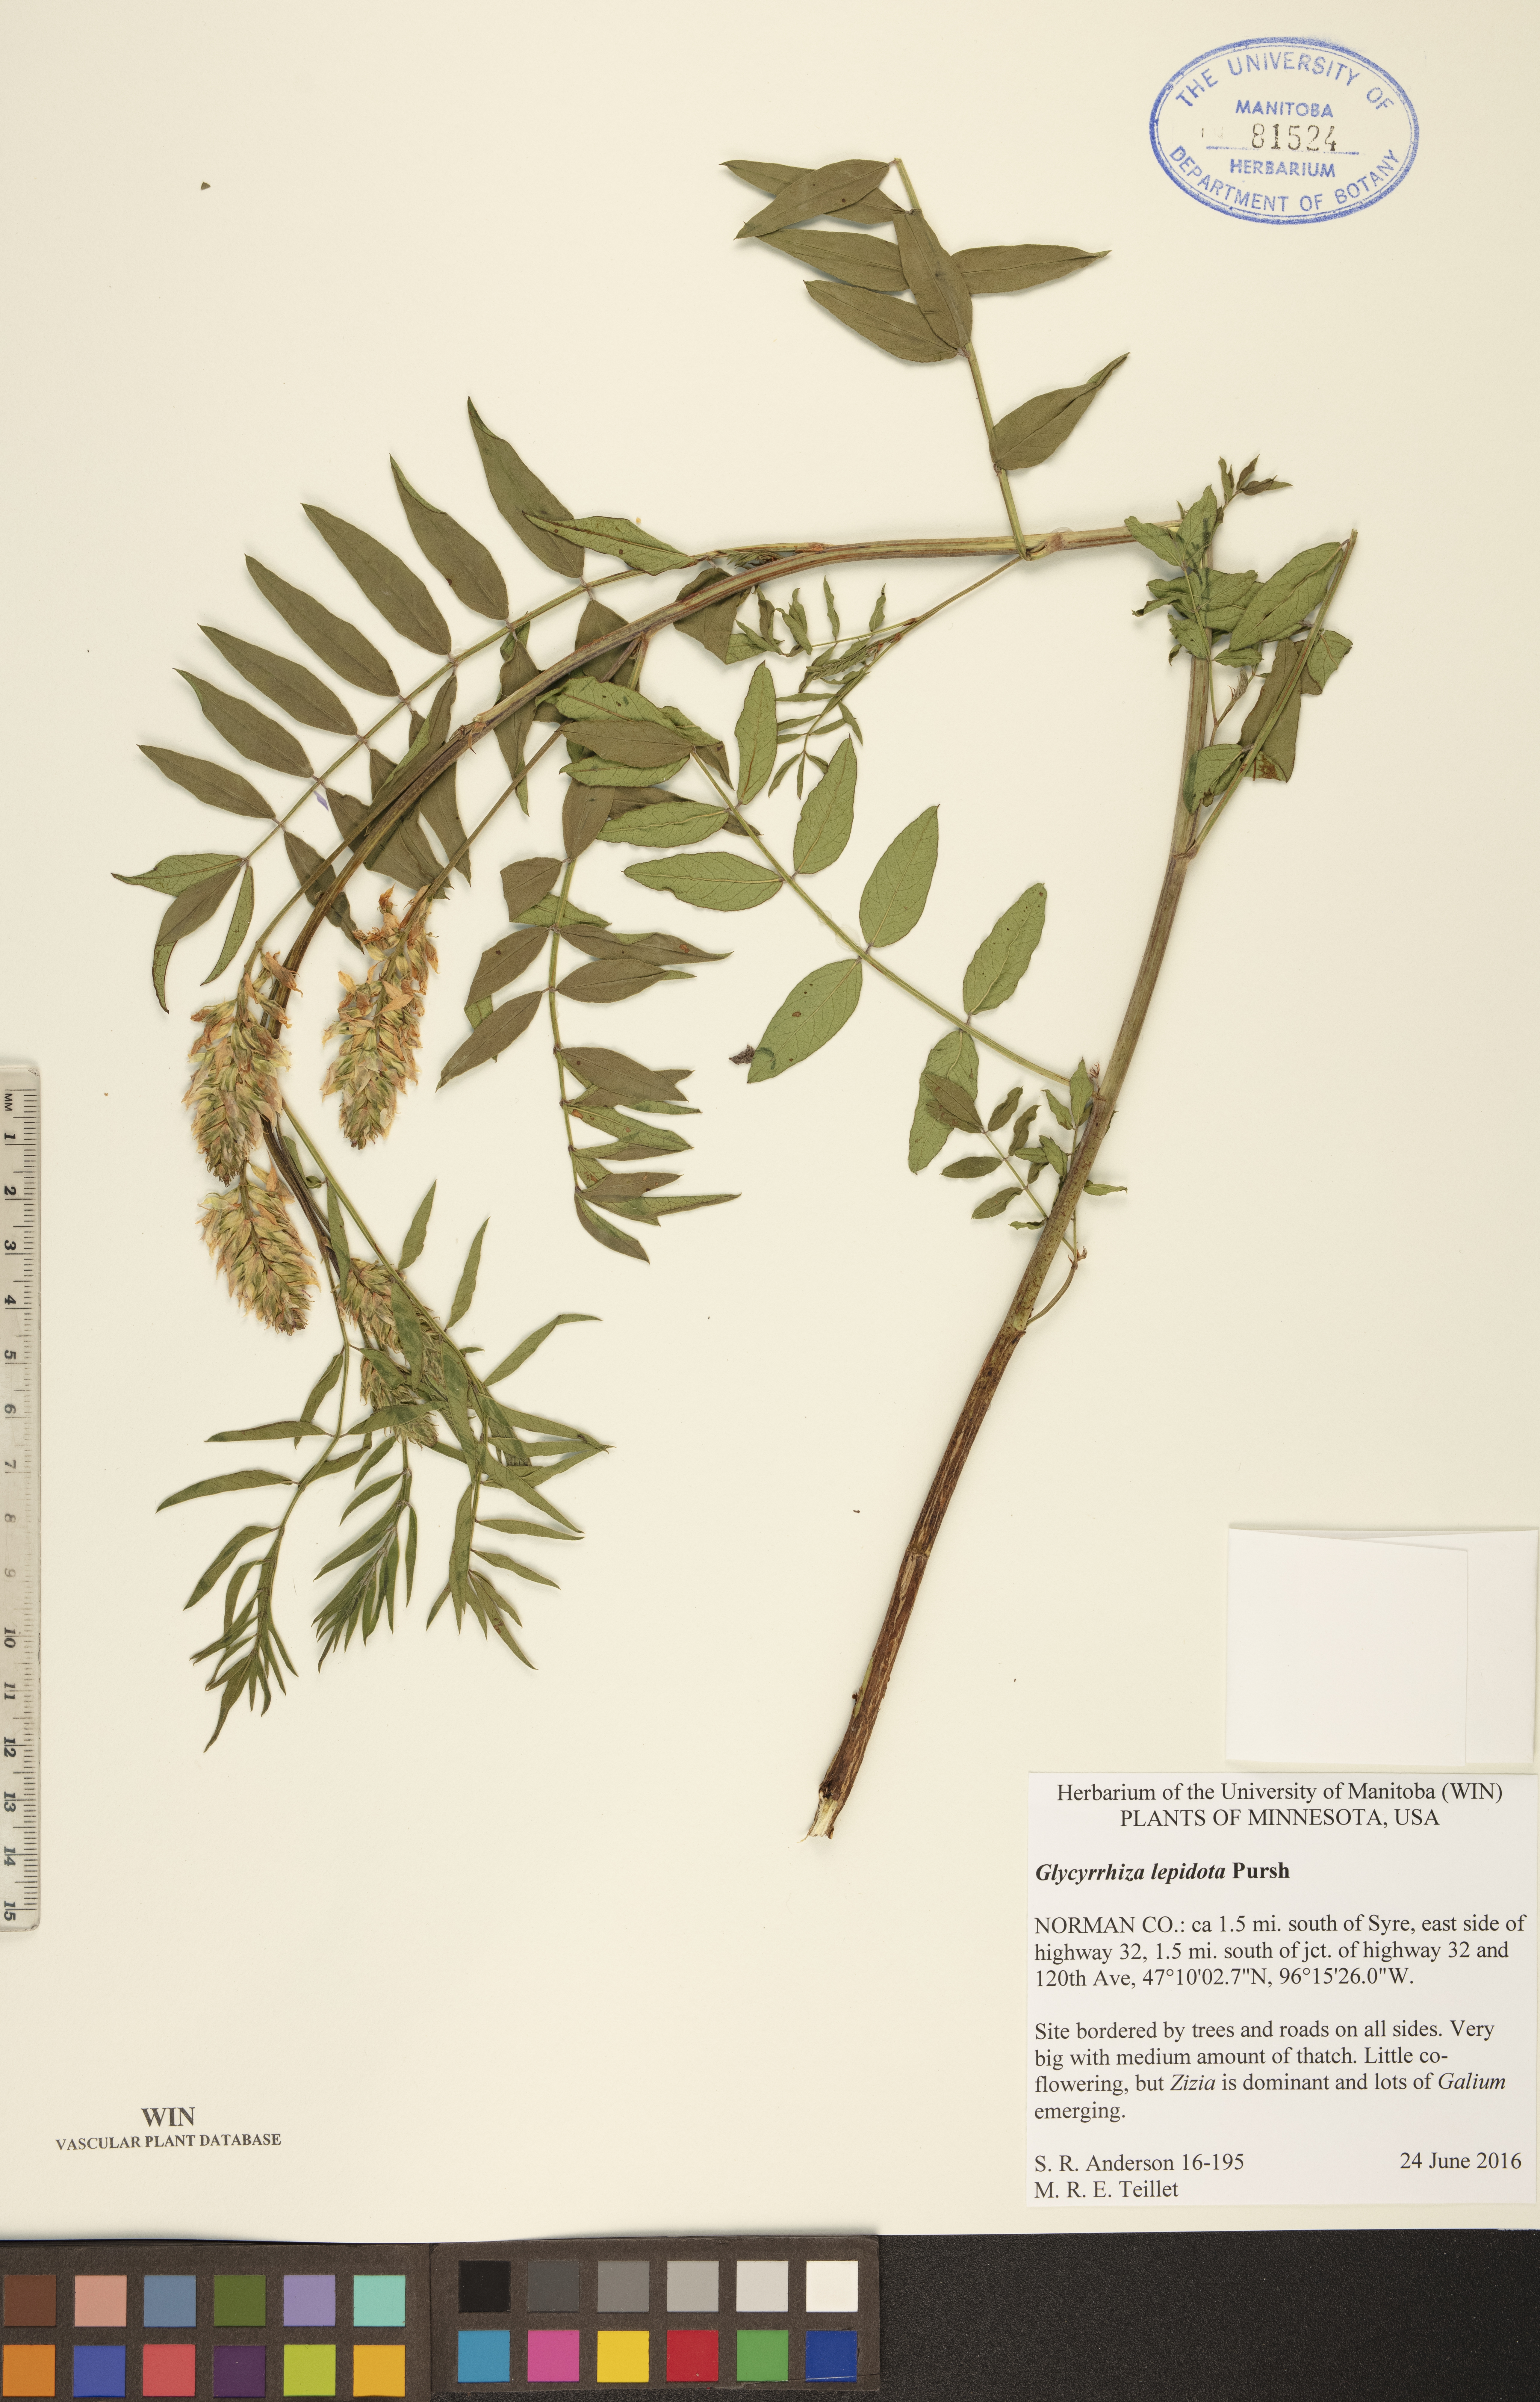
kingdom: Plantae
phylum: Tracheophyta
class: Magnoliopsida
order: Fabales
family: Fabaceae
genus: Glycyrrhiza
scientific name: Glycyrrhiza lepidota
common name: American liquorice
